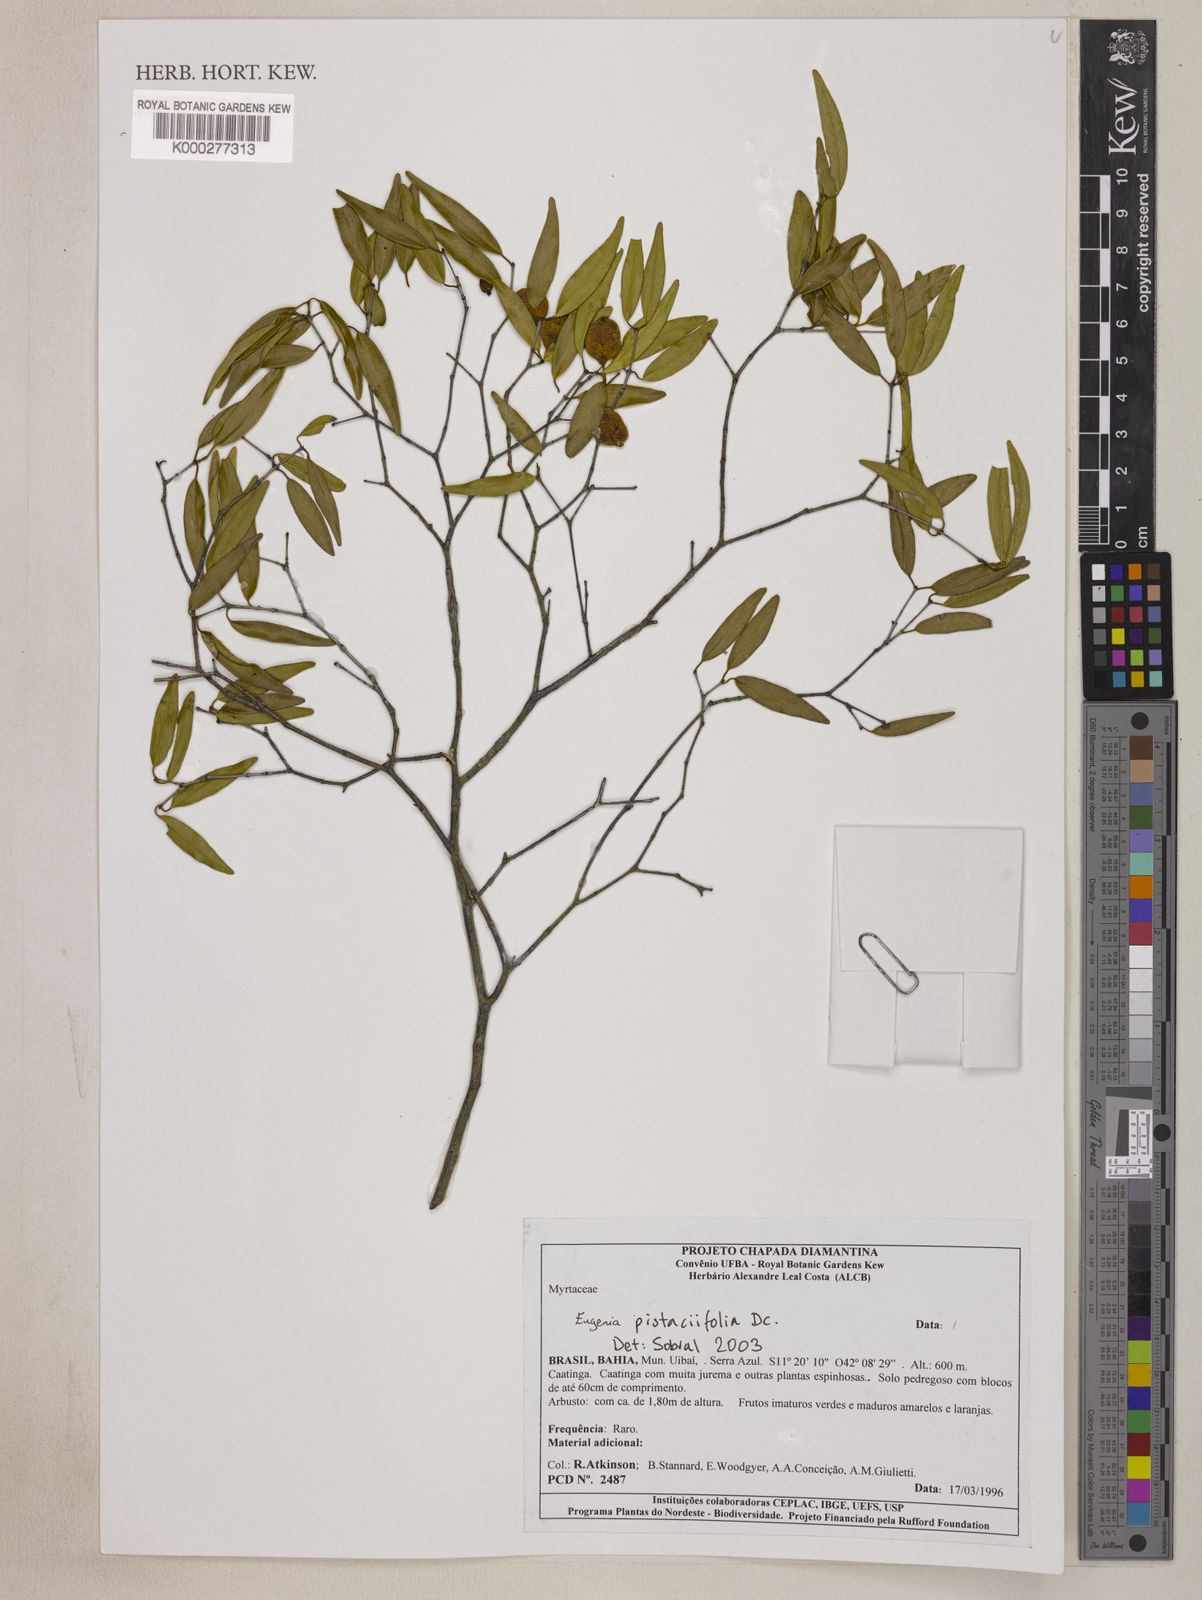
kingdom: Plantae
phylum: Tracheophyta
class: Magnoliopsida
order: Myrtales
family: Myrtaceae
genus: Eugenia
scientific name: Eugenia pistaciifolia
